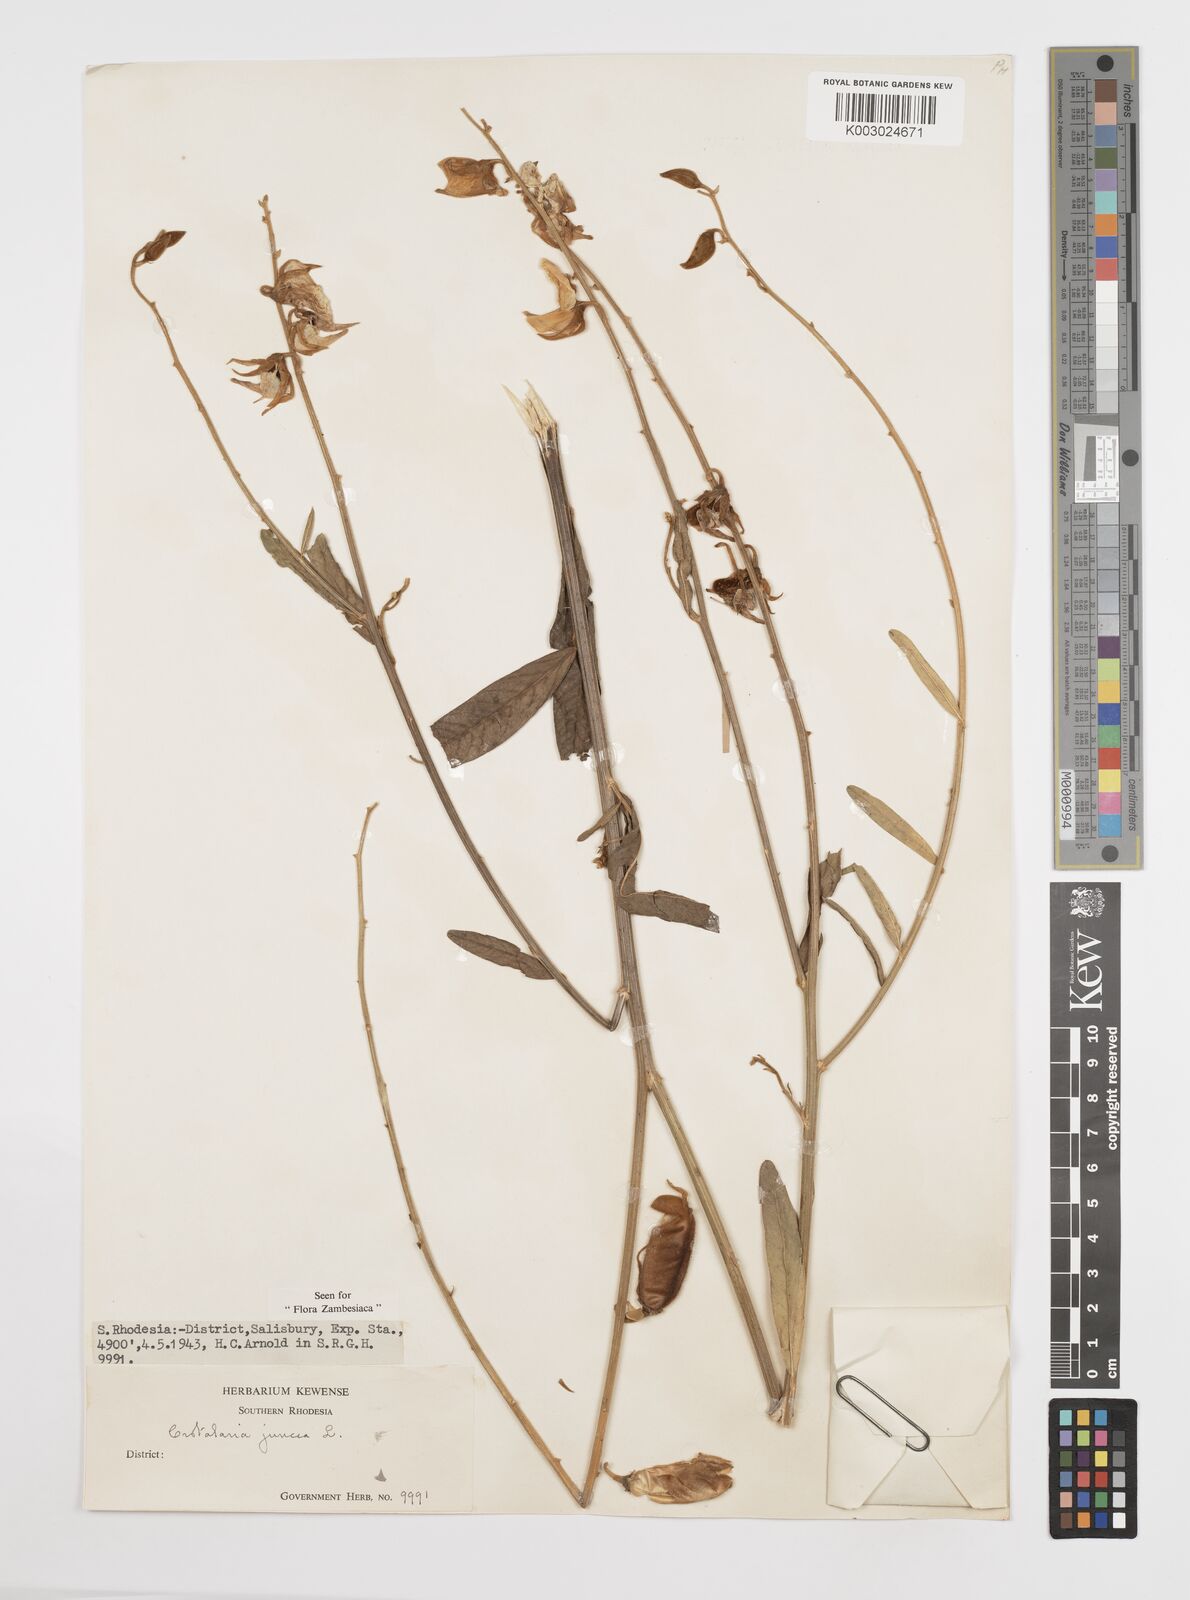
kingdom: Plantae
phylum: Tracheophyta
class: Magnoliopsida
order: Fabales
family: Fabaceae
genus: Crotalaria
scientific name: Crotalaria juncea
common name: Sunn hemp
